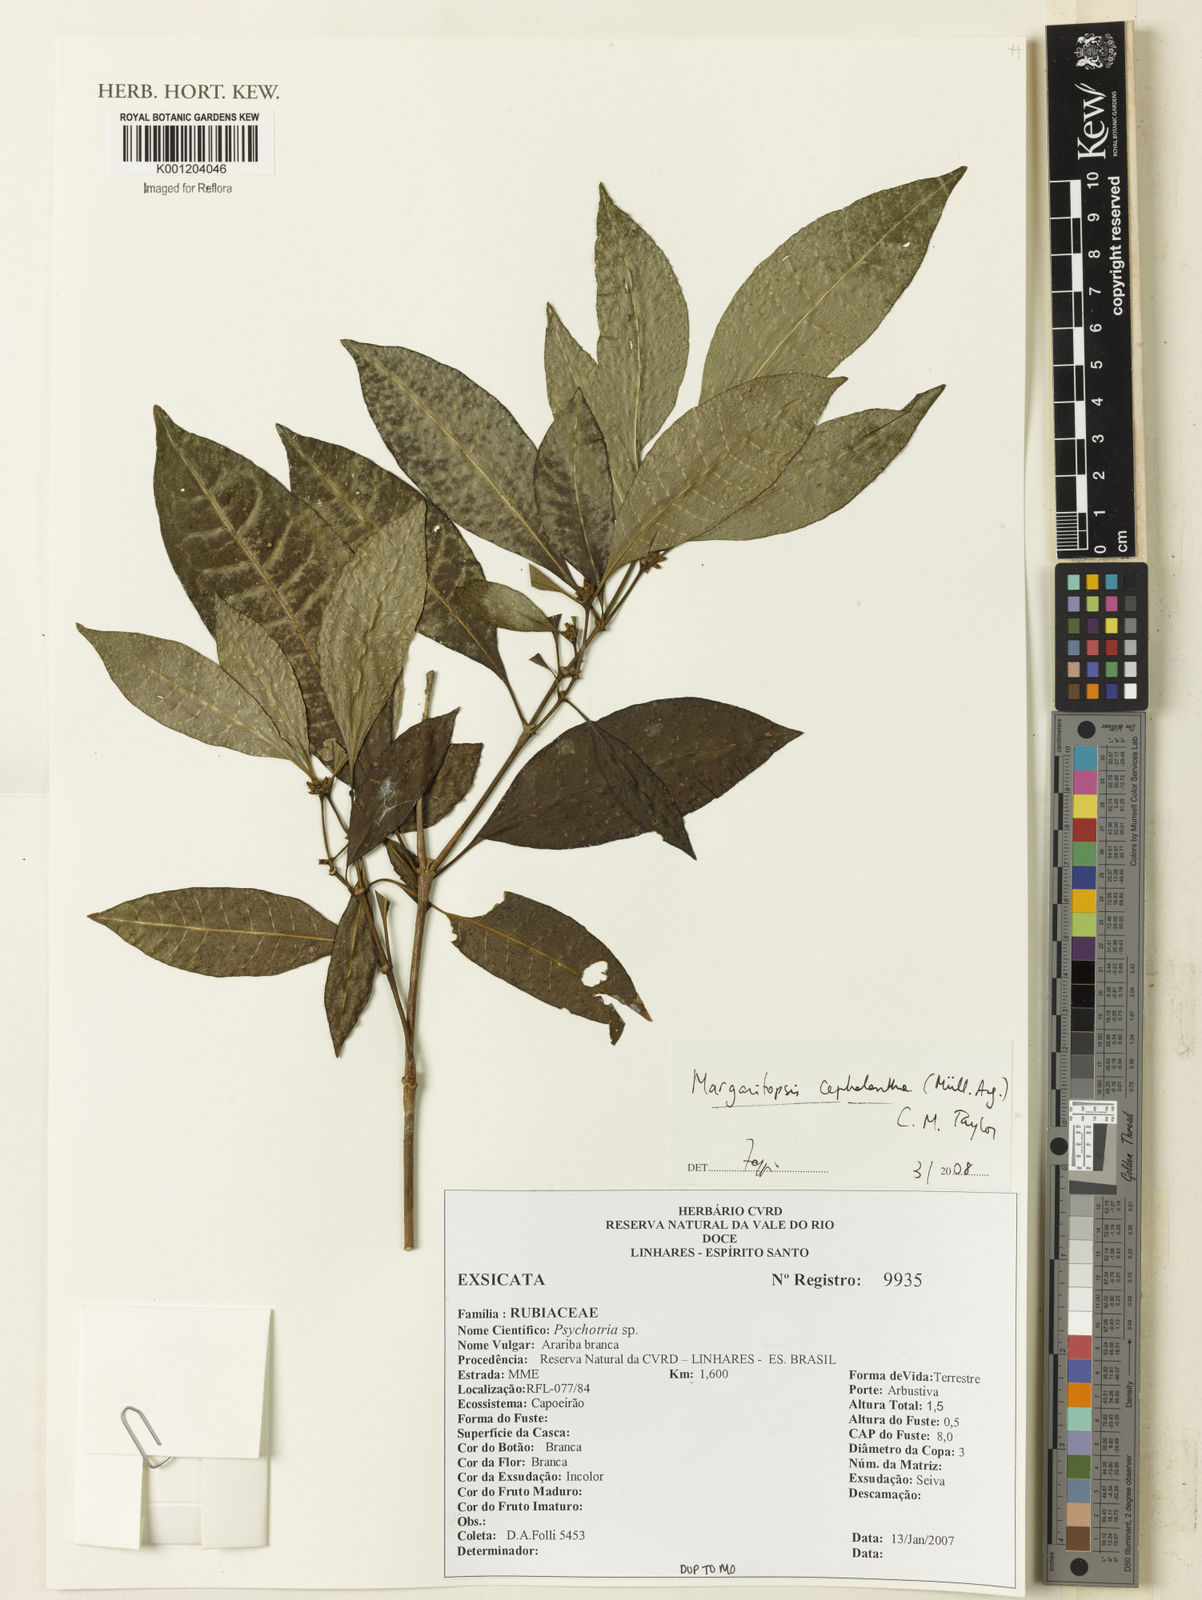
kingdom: Plantae
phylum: Tracheophyta
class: Magnoliopsida
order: Gentianales
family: Rubiaceae
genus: Eumachia
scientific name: Eumachia
